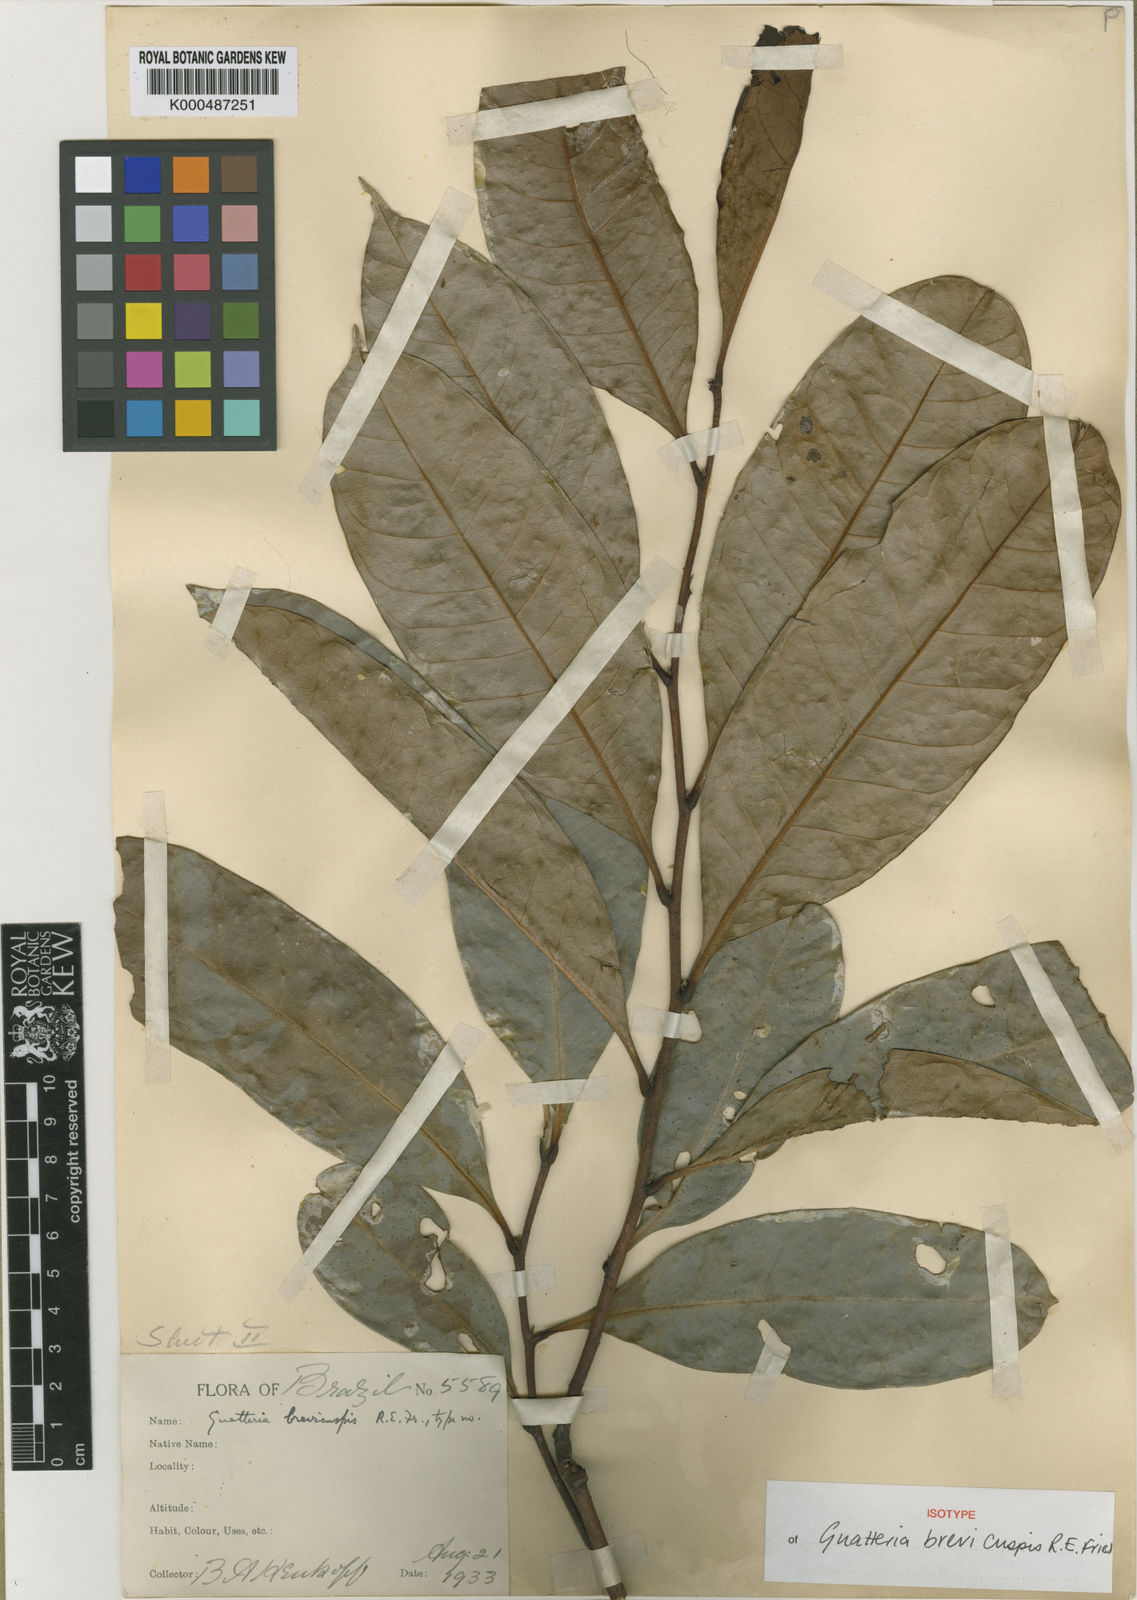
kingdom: Plantae
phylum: Tracheophyta
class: Magnoliopsida
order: Magnoliales
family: Annonaceae
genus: Guatteria
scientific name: Guatteria blepharophylla
